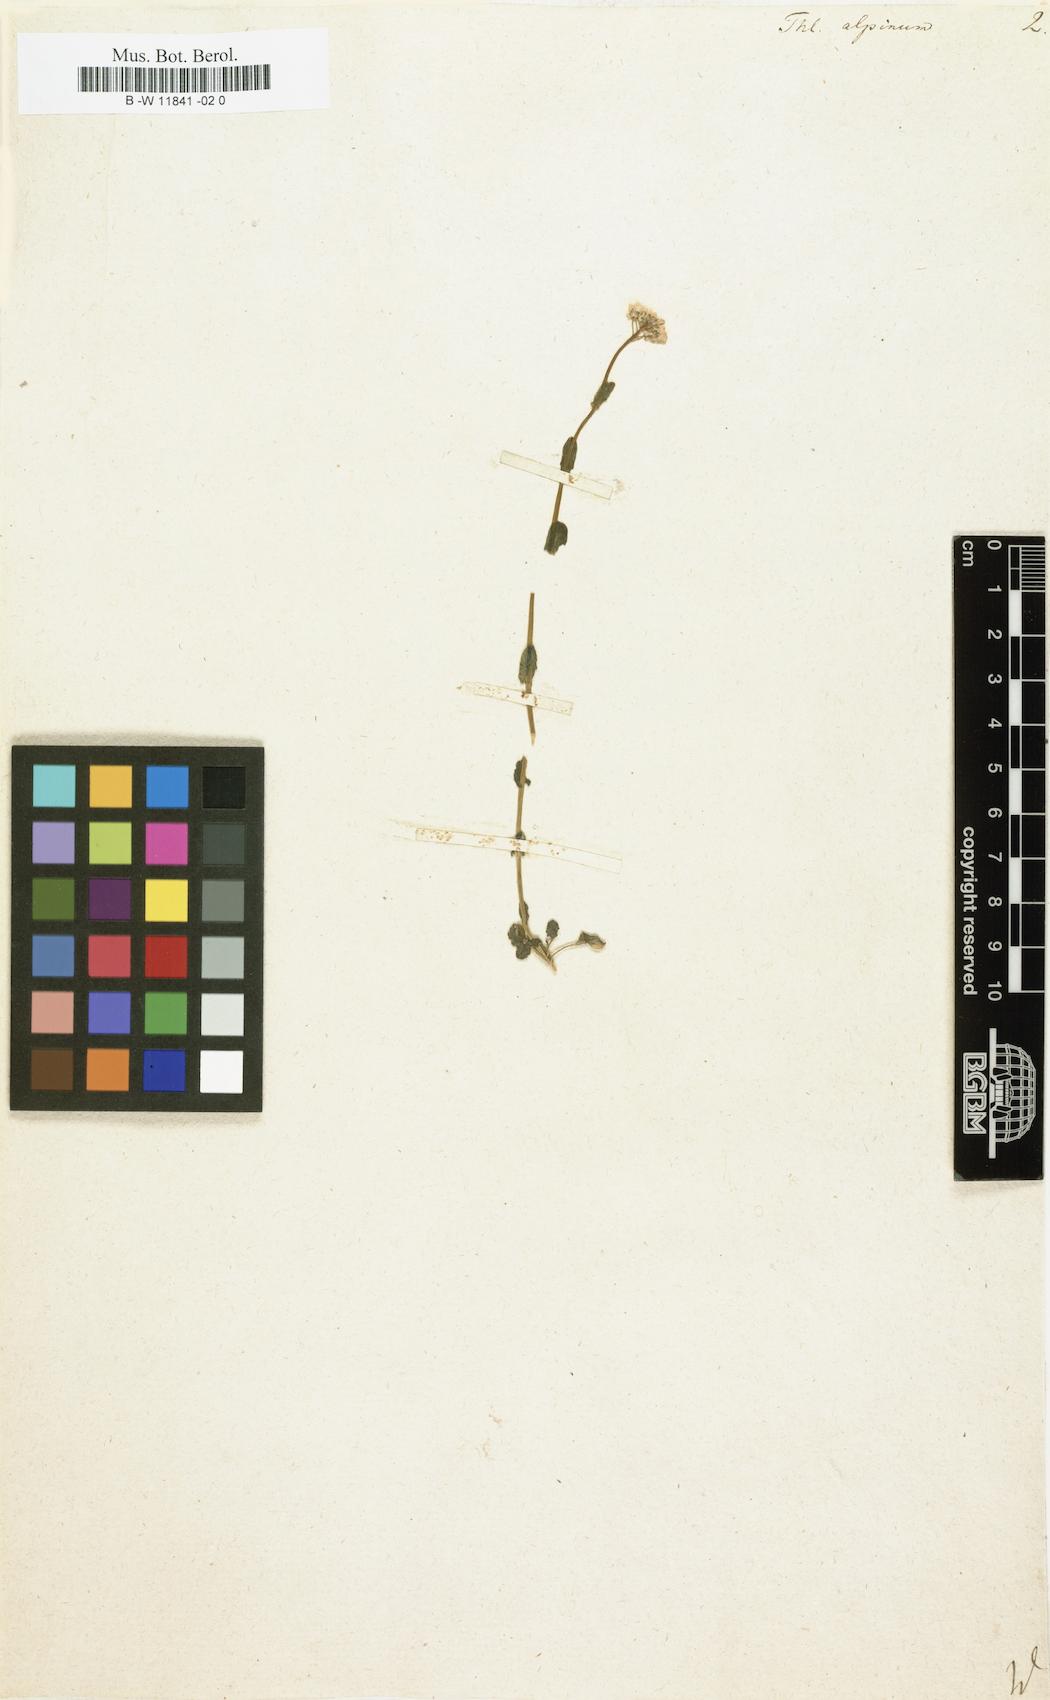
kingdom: Plantae
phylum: Tracheophyta
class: Magnoliopsida
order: Brassicales
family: Brassicaceae
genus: Noccaea
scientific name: Noccaea
